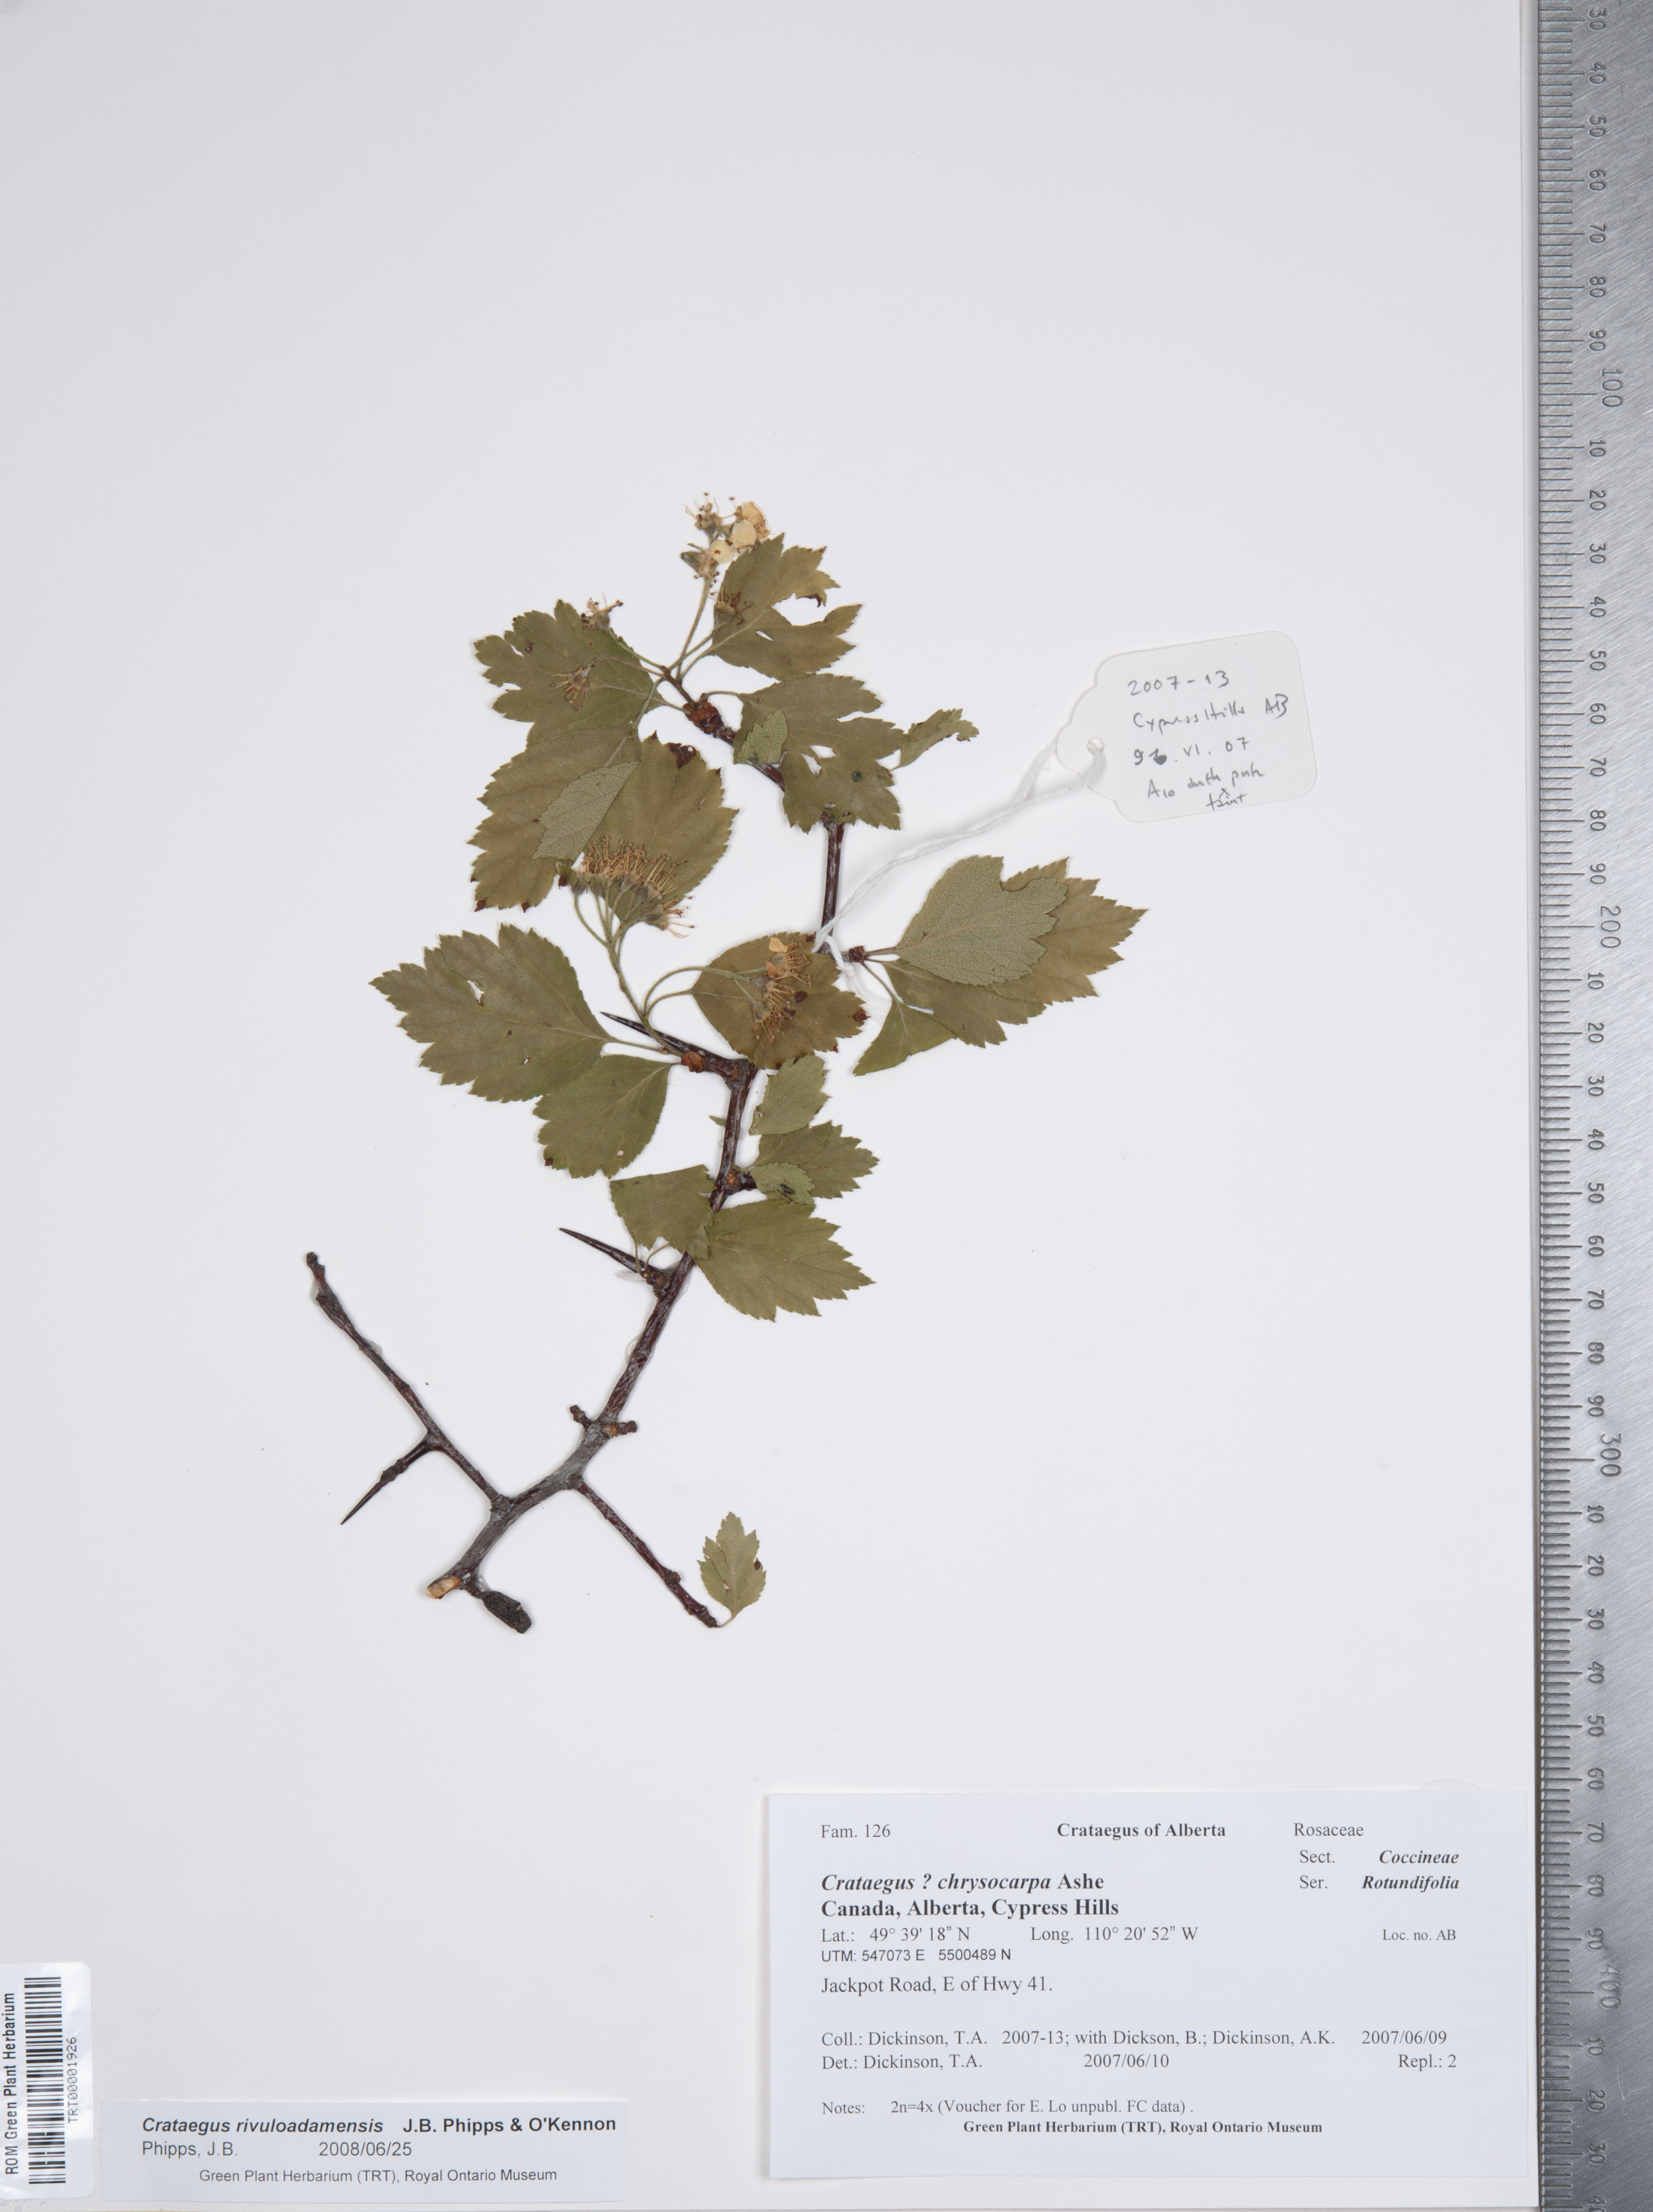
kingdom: Plantae
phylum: Tracheophyta
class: Magnoliopsida
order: Rosales
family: Rosaceae
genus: Crataegus
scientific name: Crataegus rivuloadamensis
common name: Adams creek hawthorn
